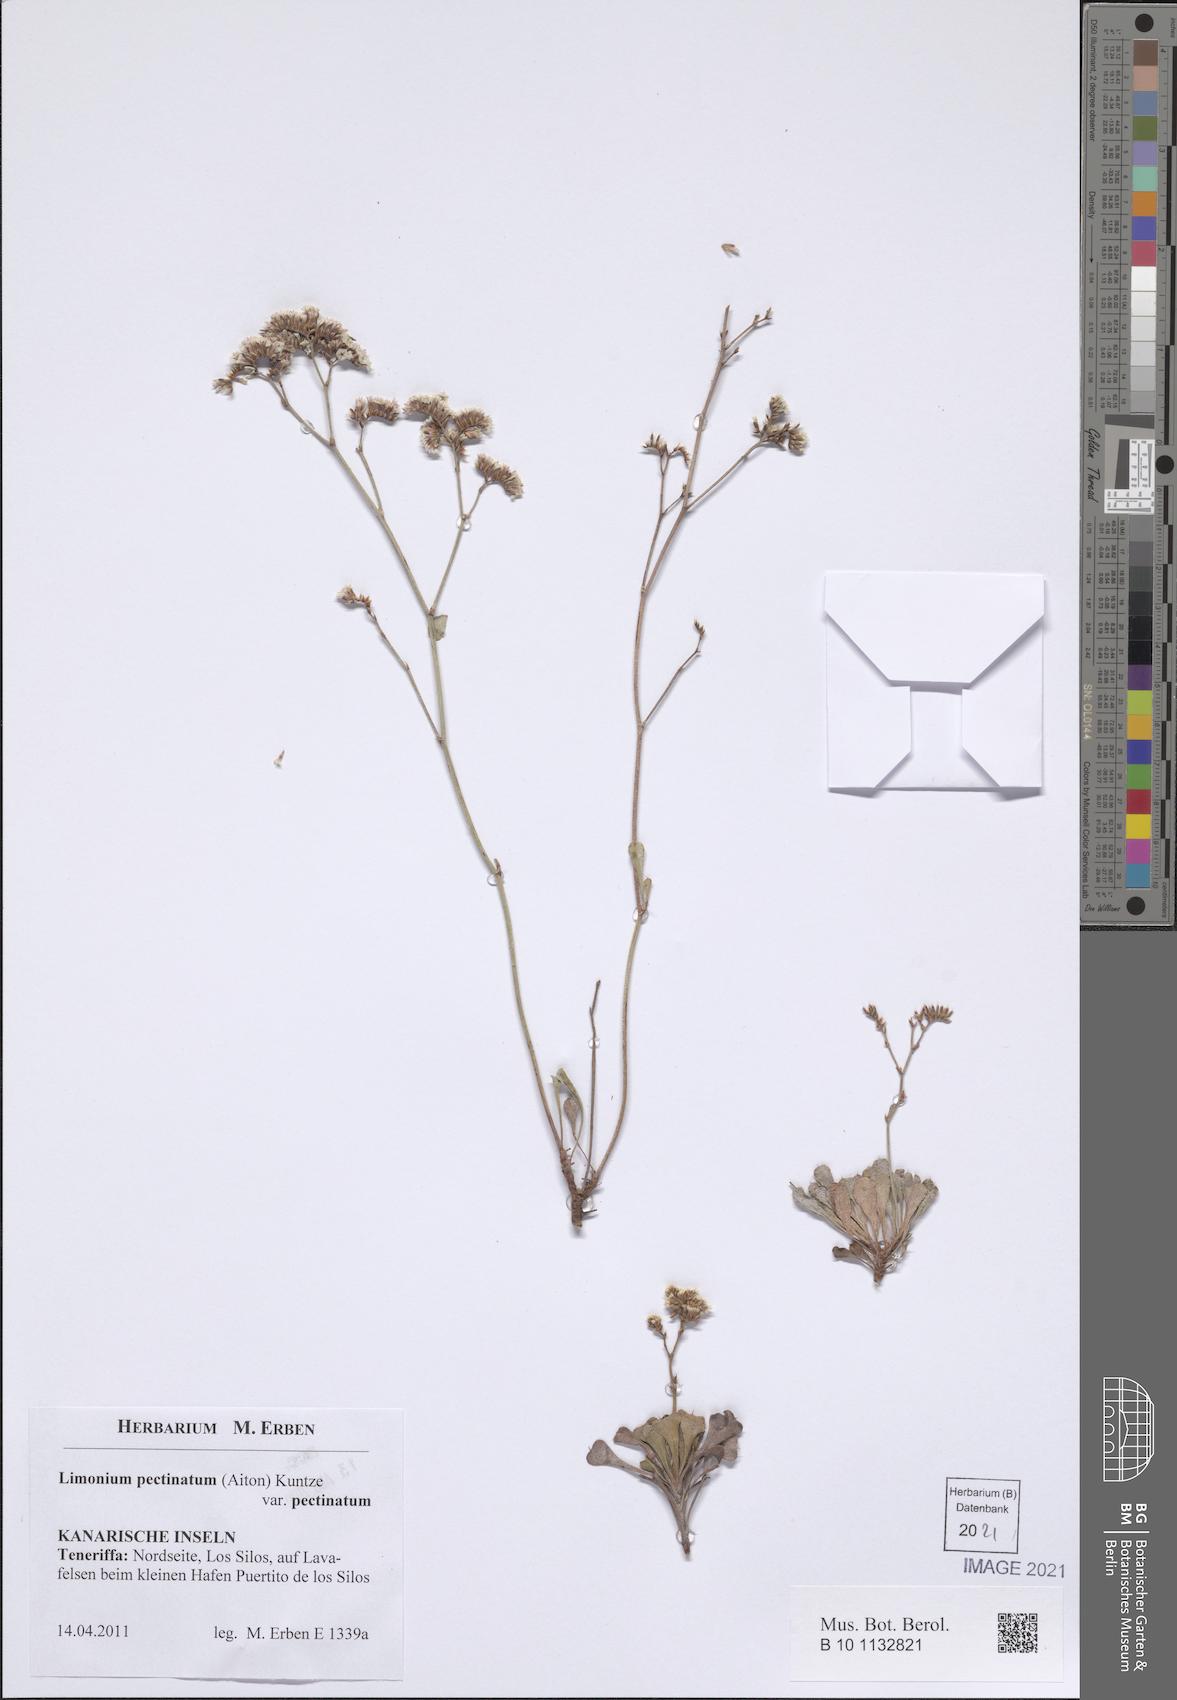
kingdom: Plantae
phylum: Tracheophyta
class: Magnoliopsida
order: Caryophyllales
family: Plumbaginaceae
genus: Limonium
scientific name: Limonium pectinatum
